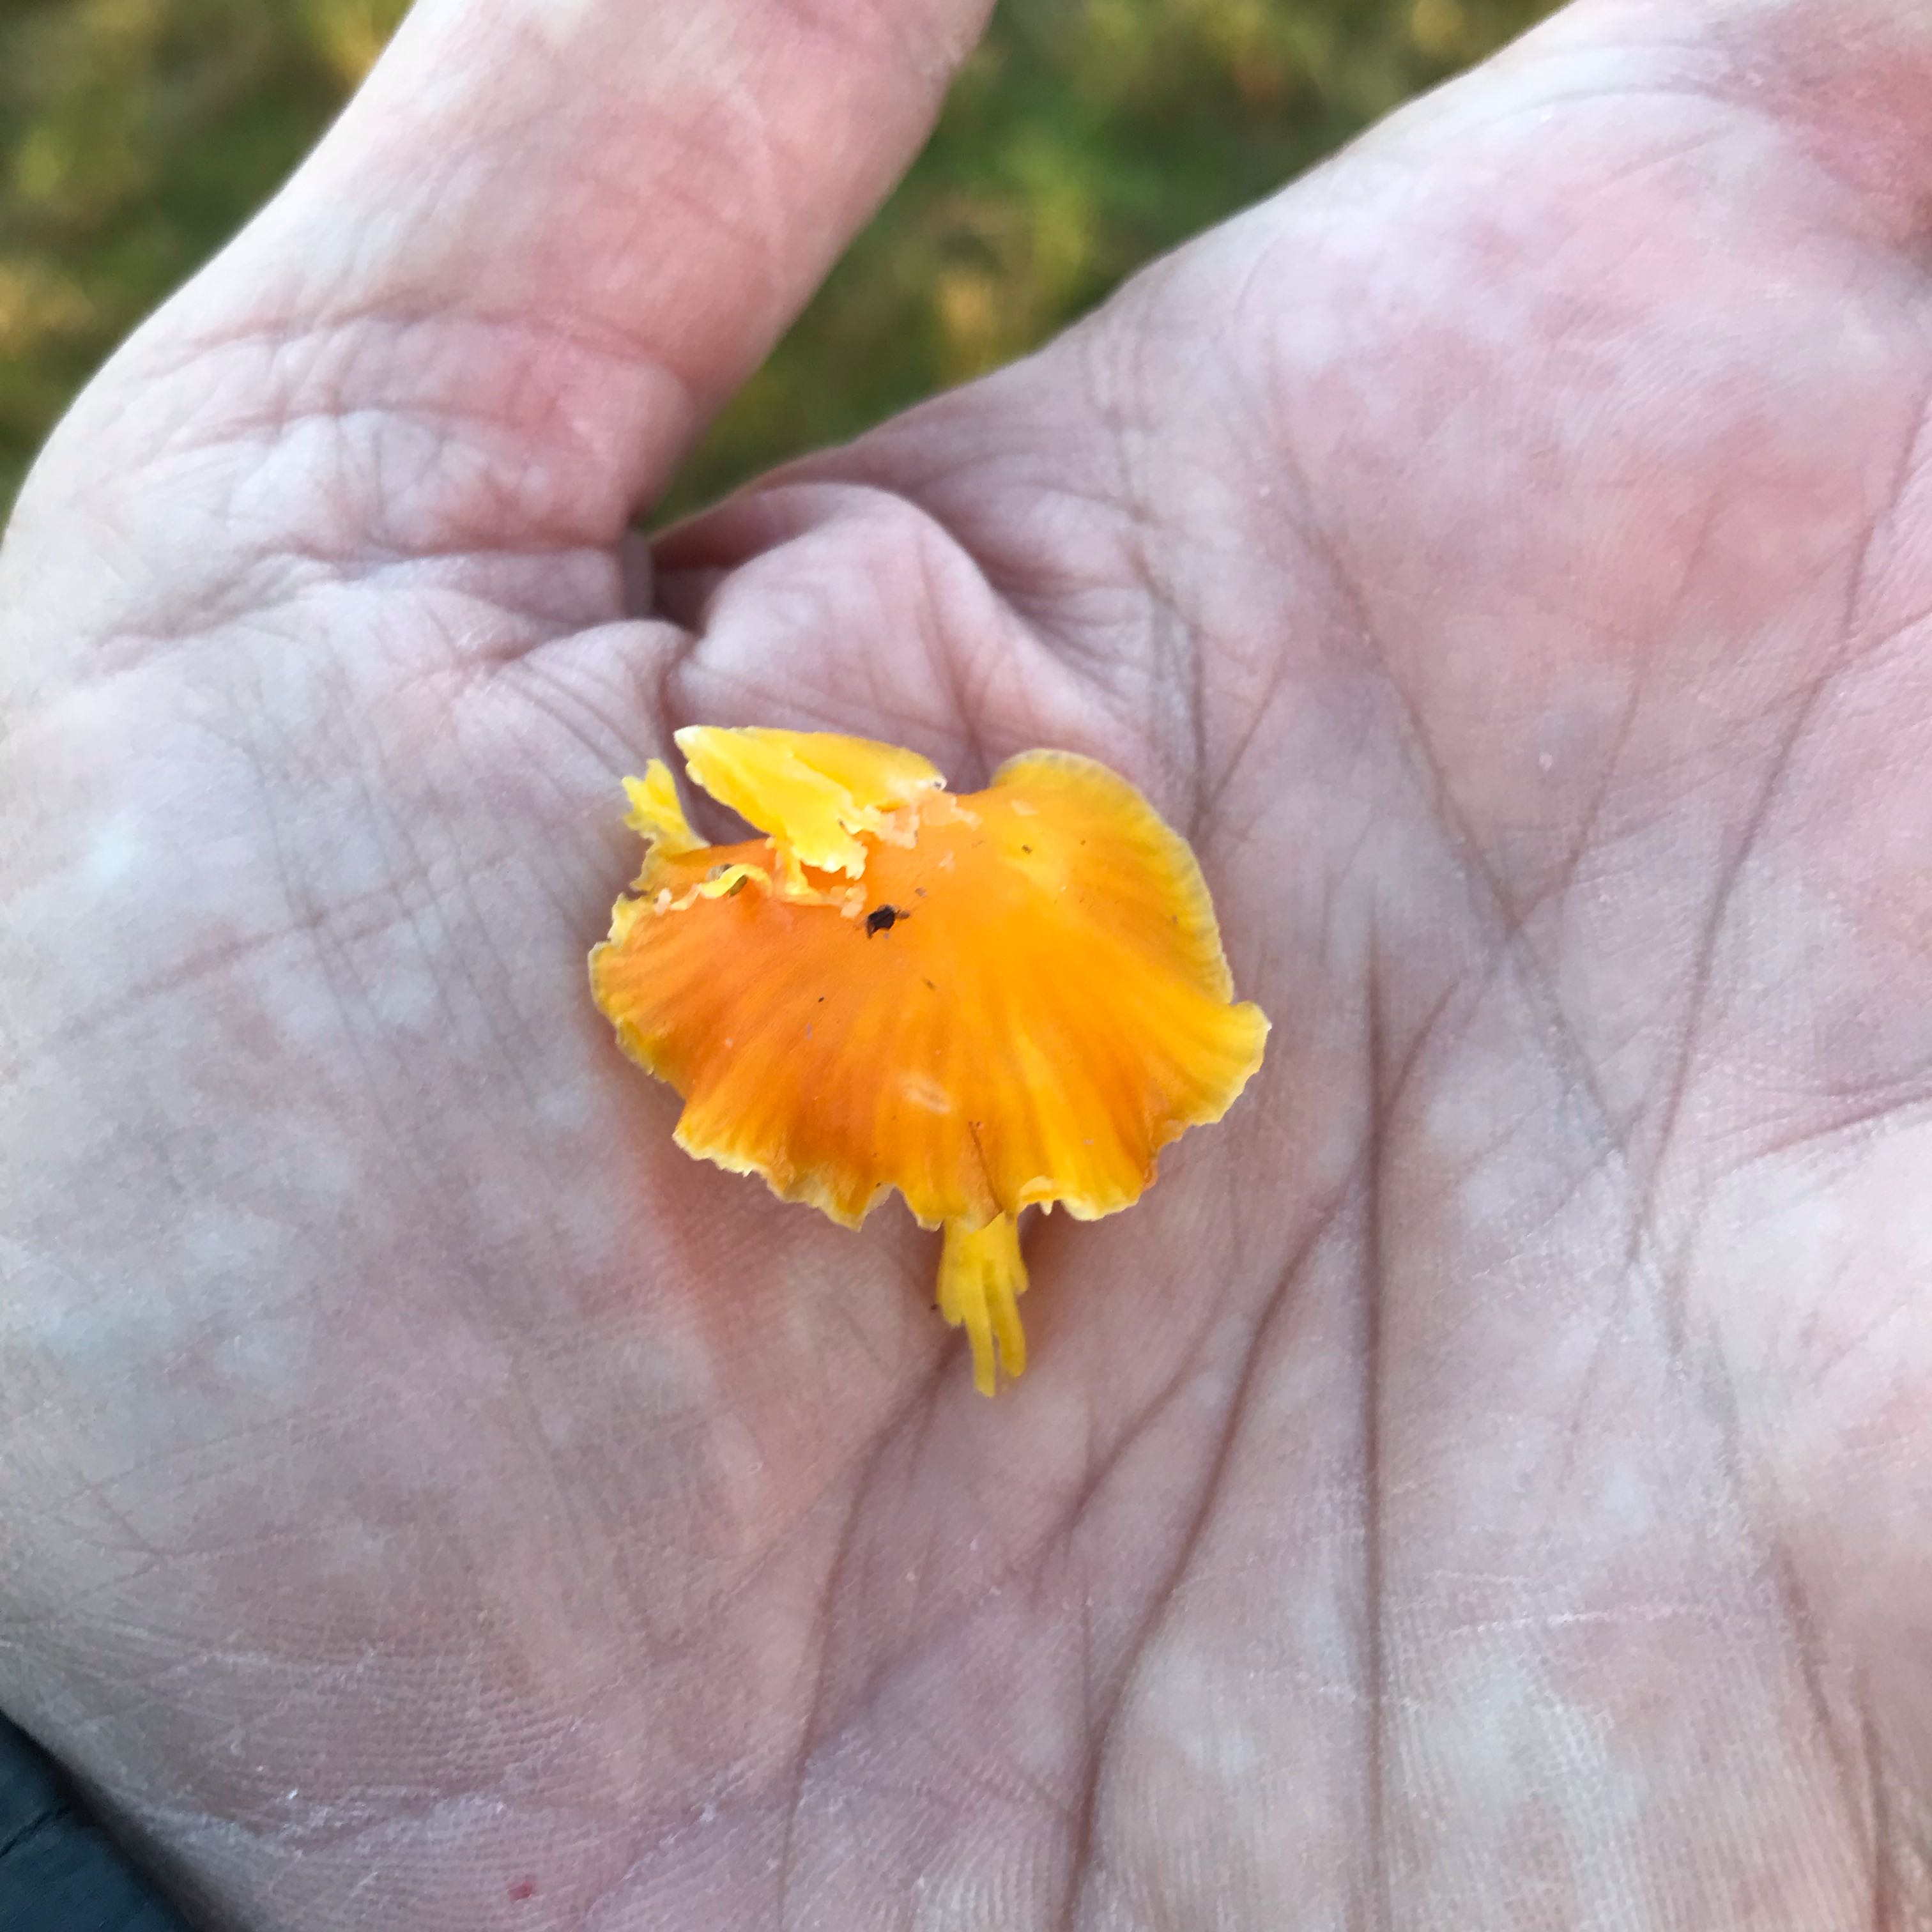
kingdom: Fungi
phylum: Basidiomycota
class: Agaricomycetes
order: Agaricales
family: Hygrophoraceae
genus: Hygrocybe
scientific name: Hygrocybe ceracea
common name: voksgul vokshat
